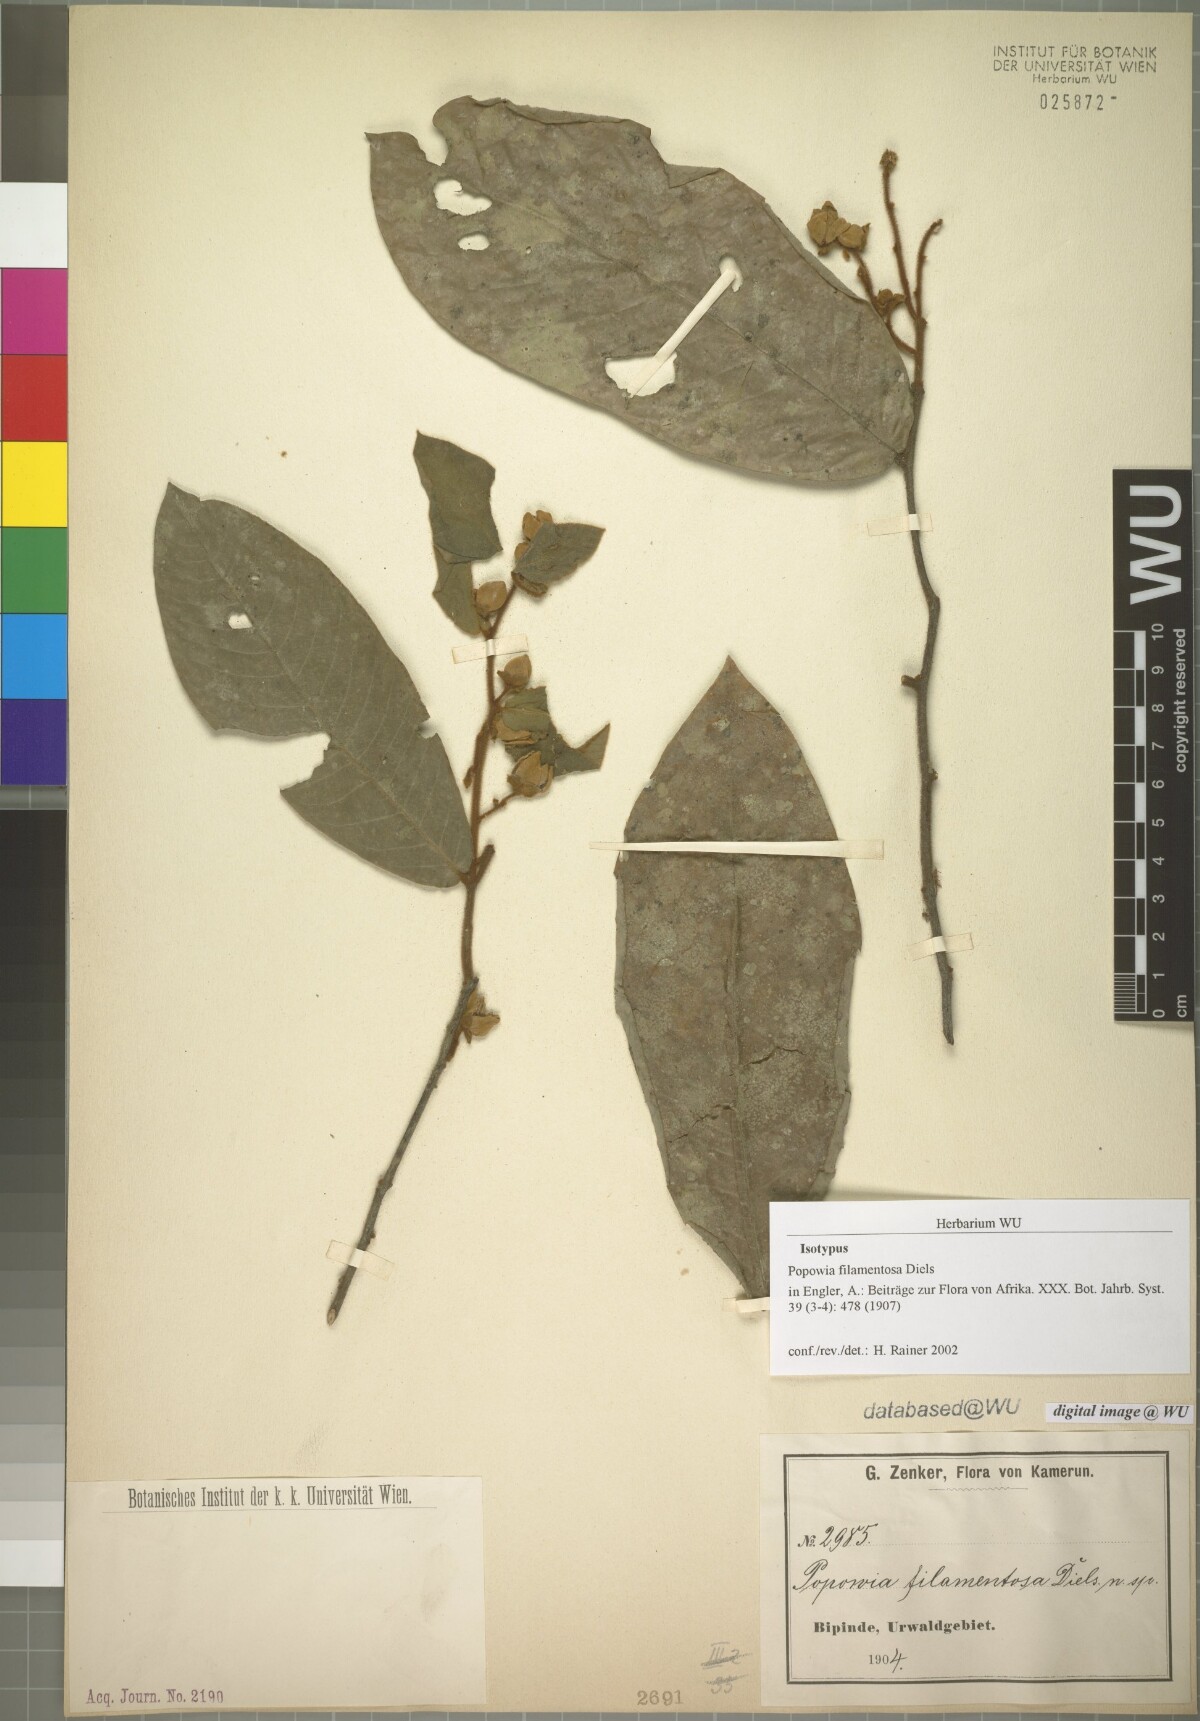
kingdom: Plantae
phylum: Tracheophyta
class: Magnoliopsida
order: Magnoliales
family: Annonaceae
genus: Monanthotaxis
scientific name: Monanthotaxis filamentosa
